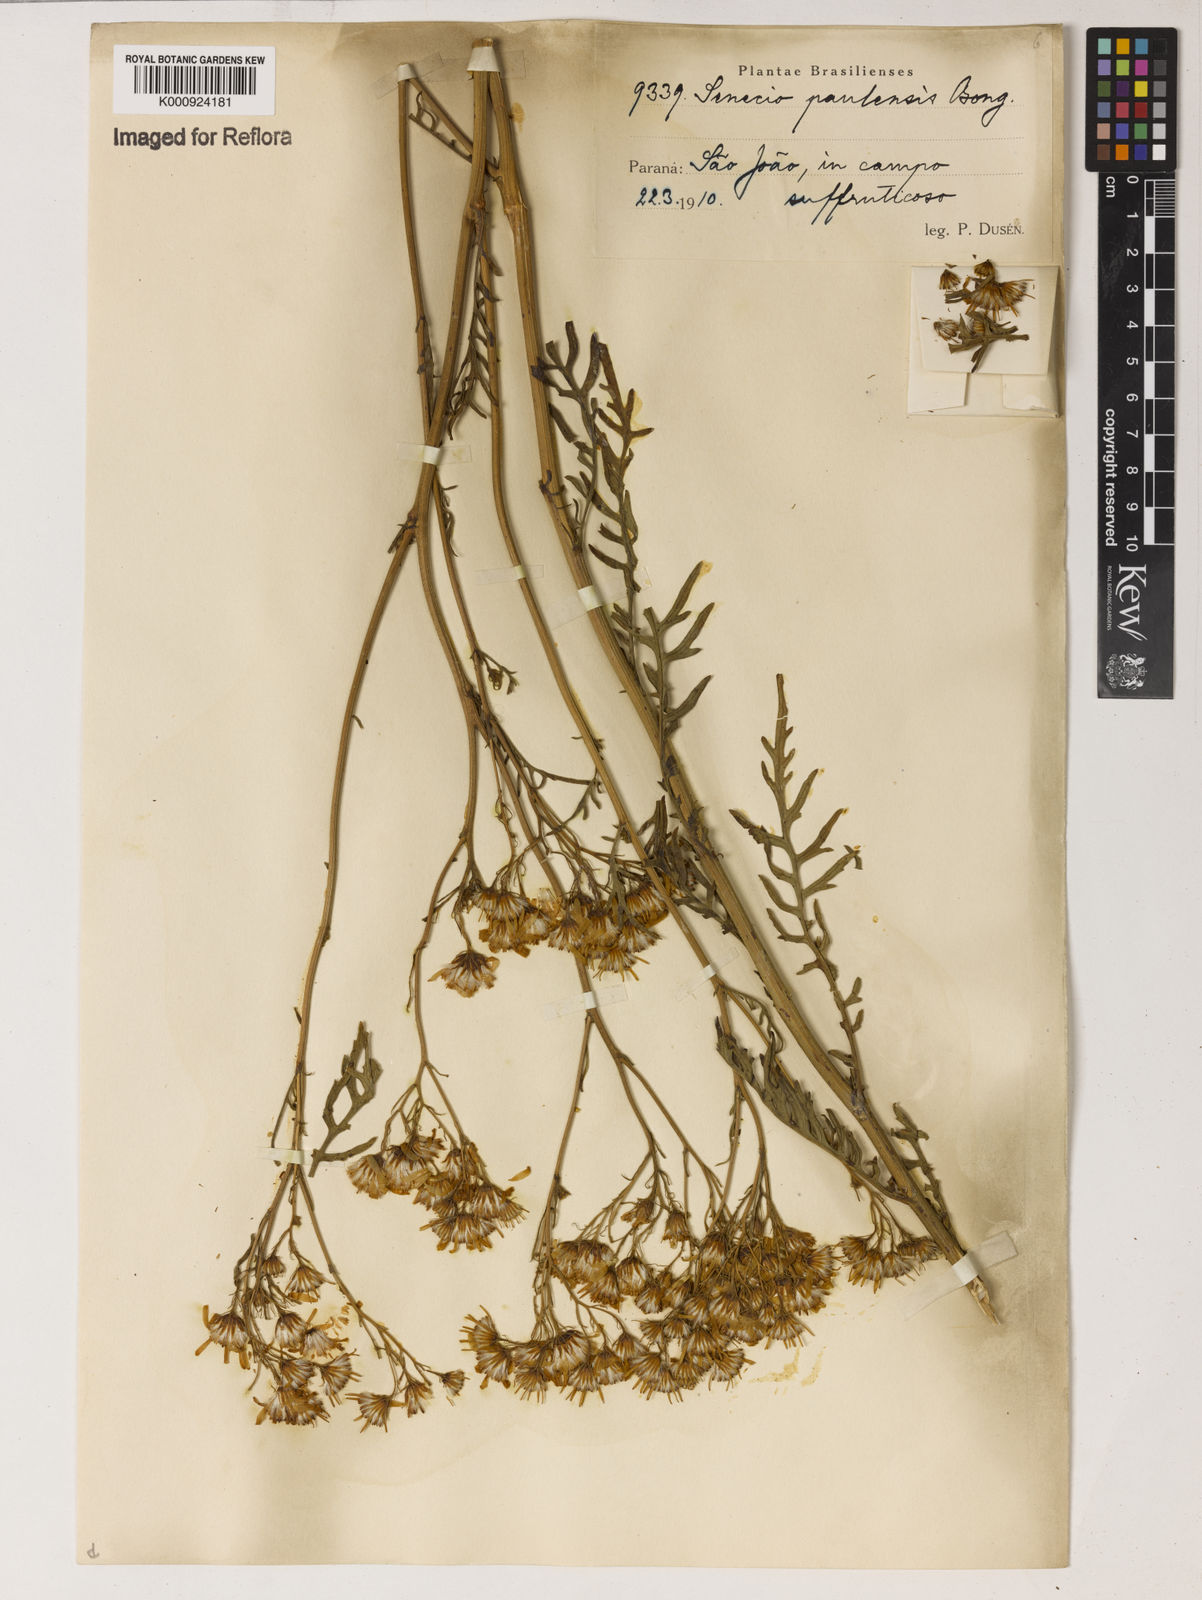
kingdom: Plantae
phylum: Tracheophyta
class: Magnoliopsida
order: Asterales
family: Asteraceae
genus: Senecio
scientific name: Senecio paulensis
